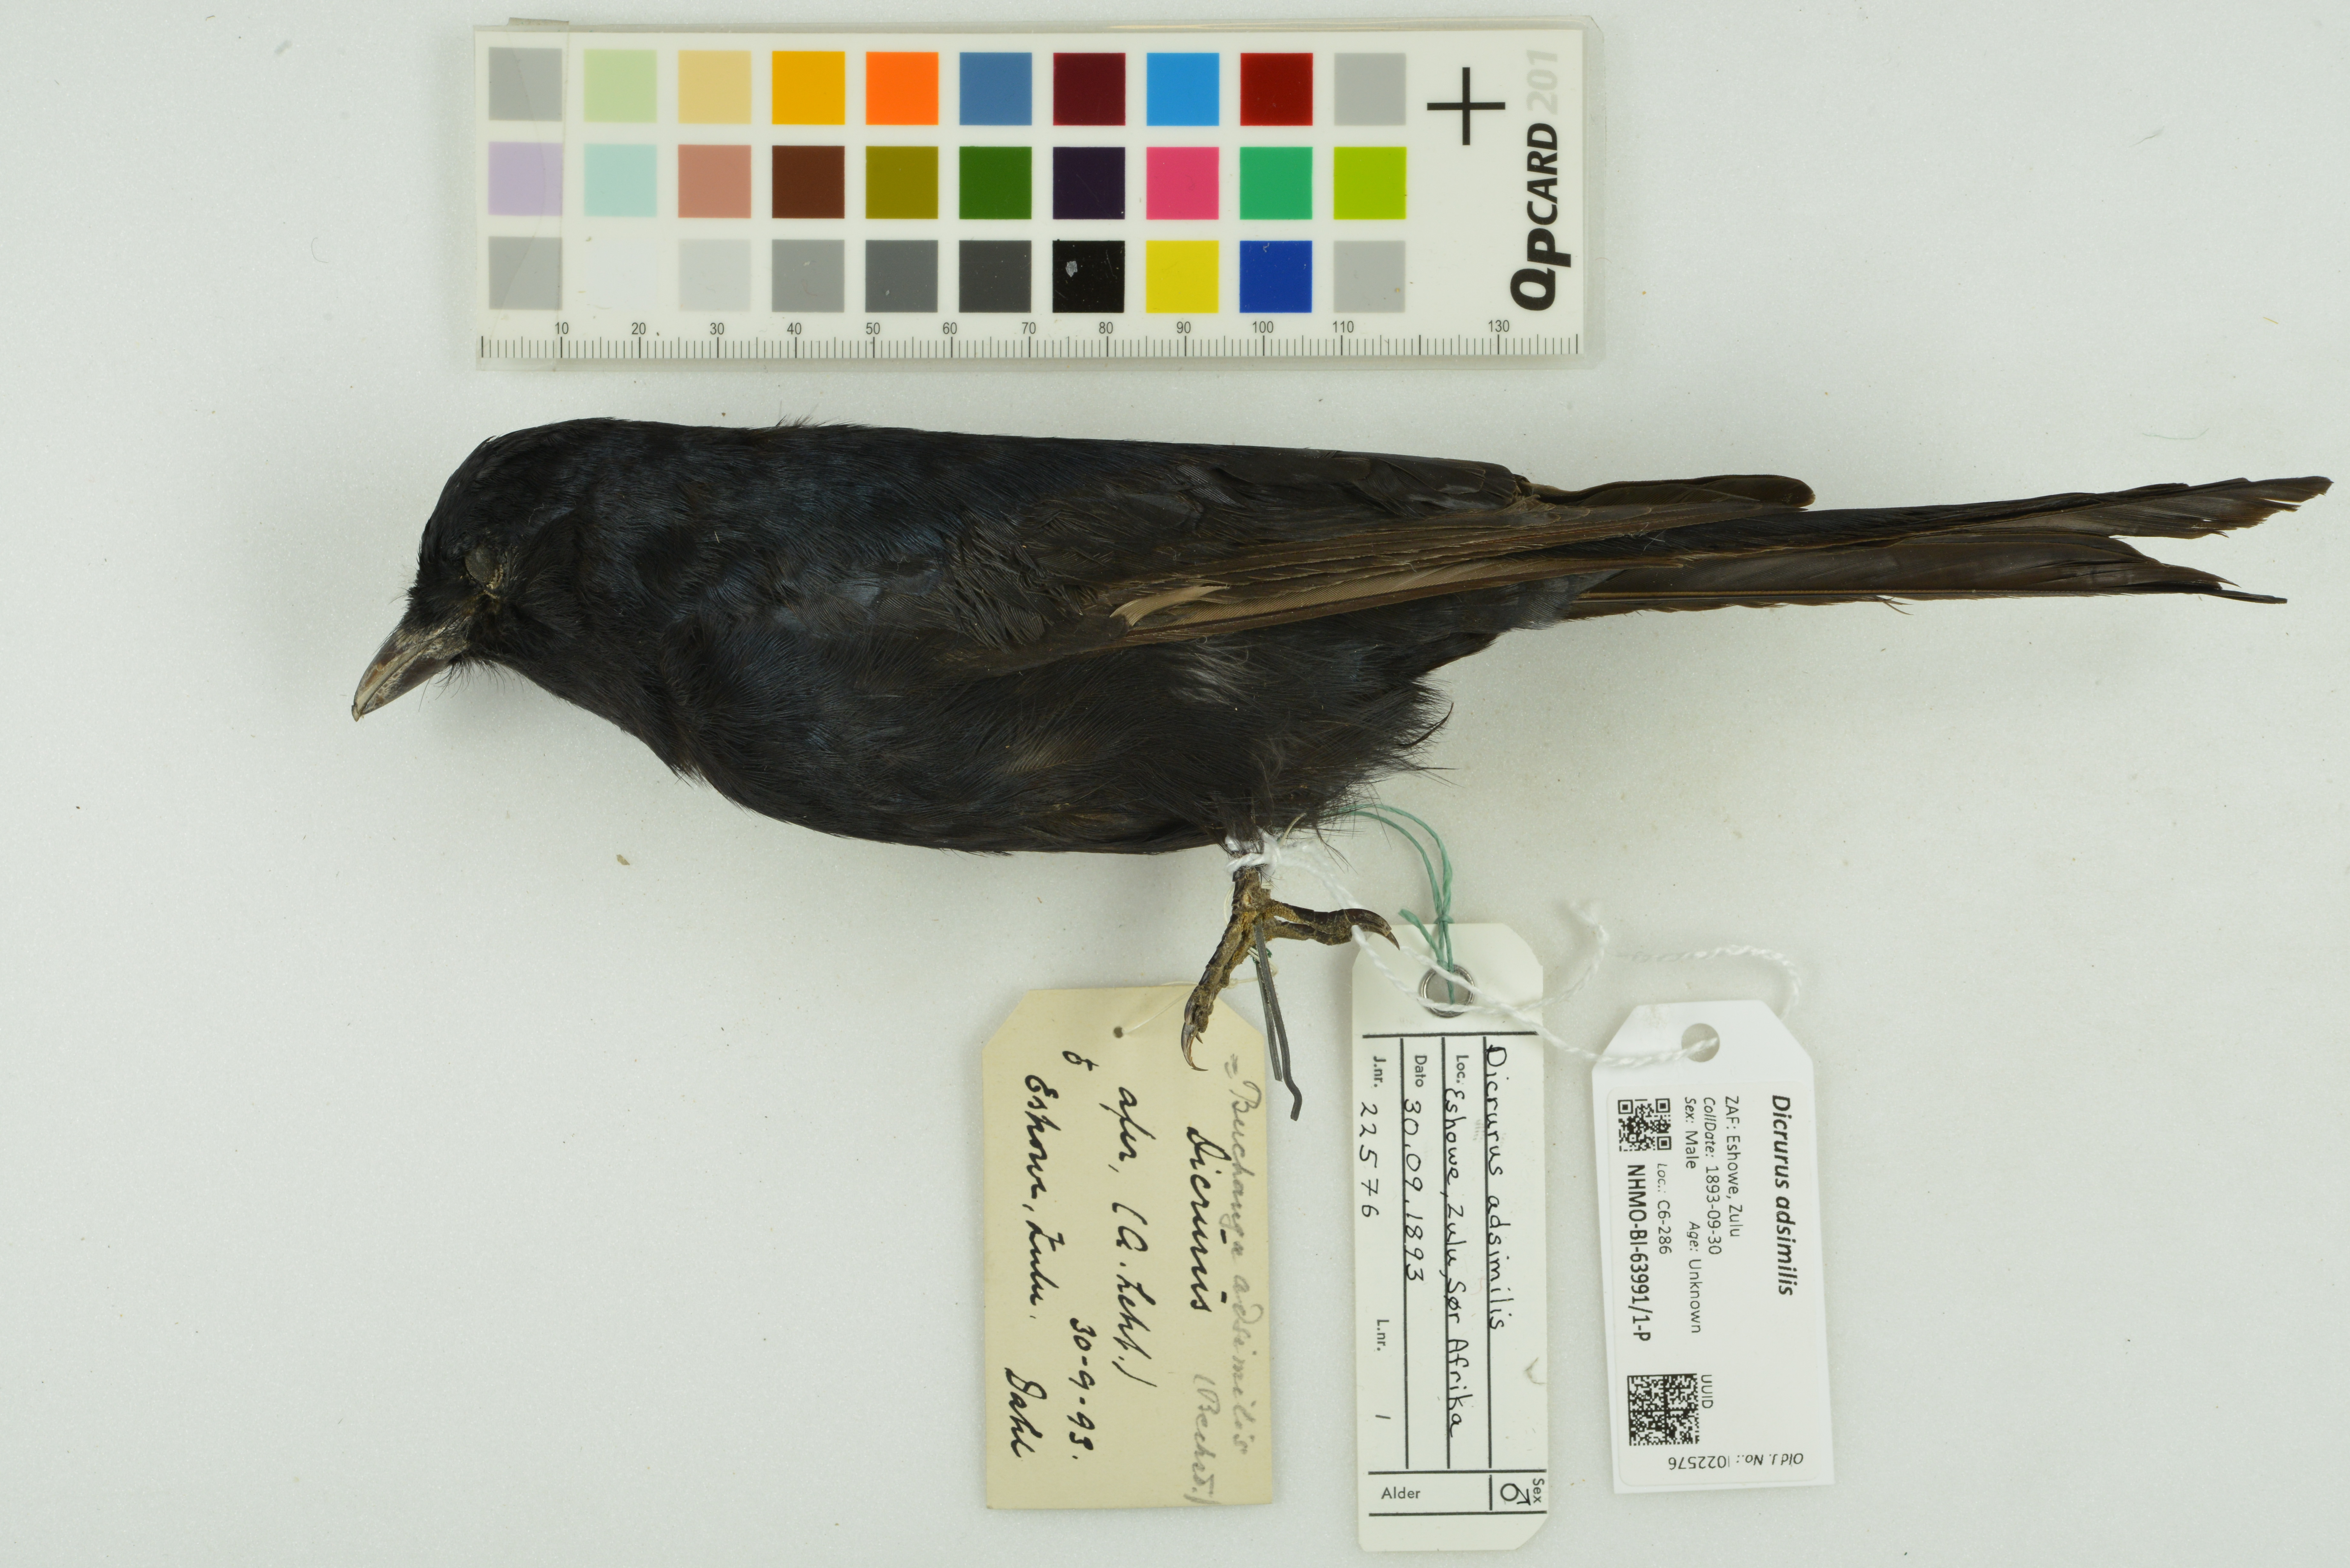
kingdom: Animalia
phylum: Chordata
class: Aves
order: Passeriformes
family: Dicruridae
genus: Dicrurus
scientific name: Dicrurus adsimilis
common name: Fork-tailed drongo
